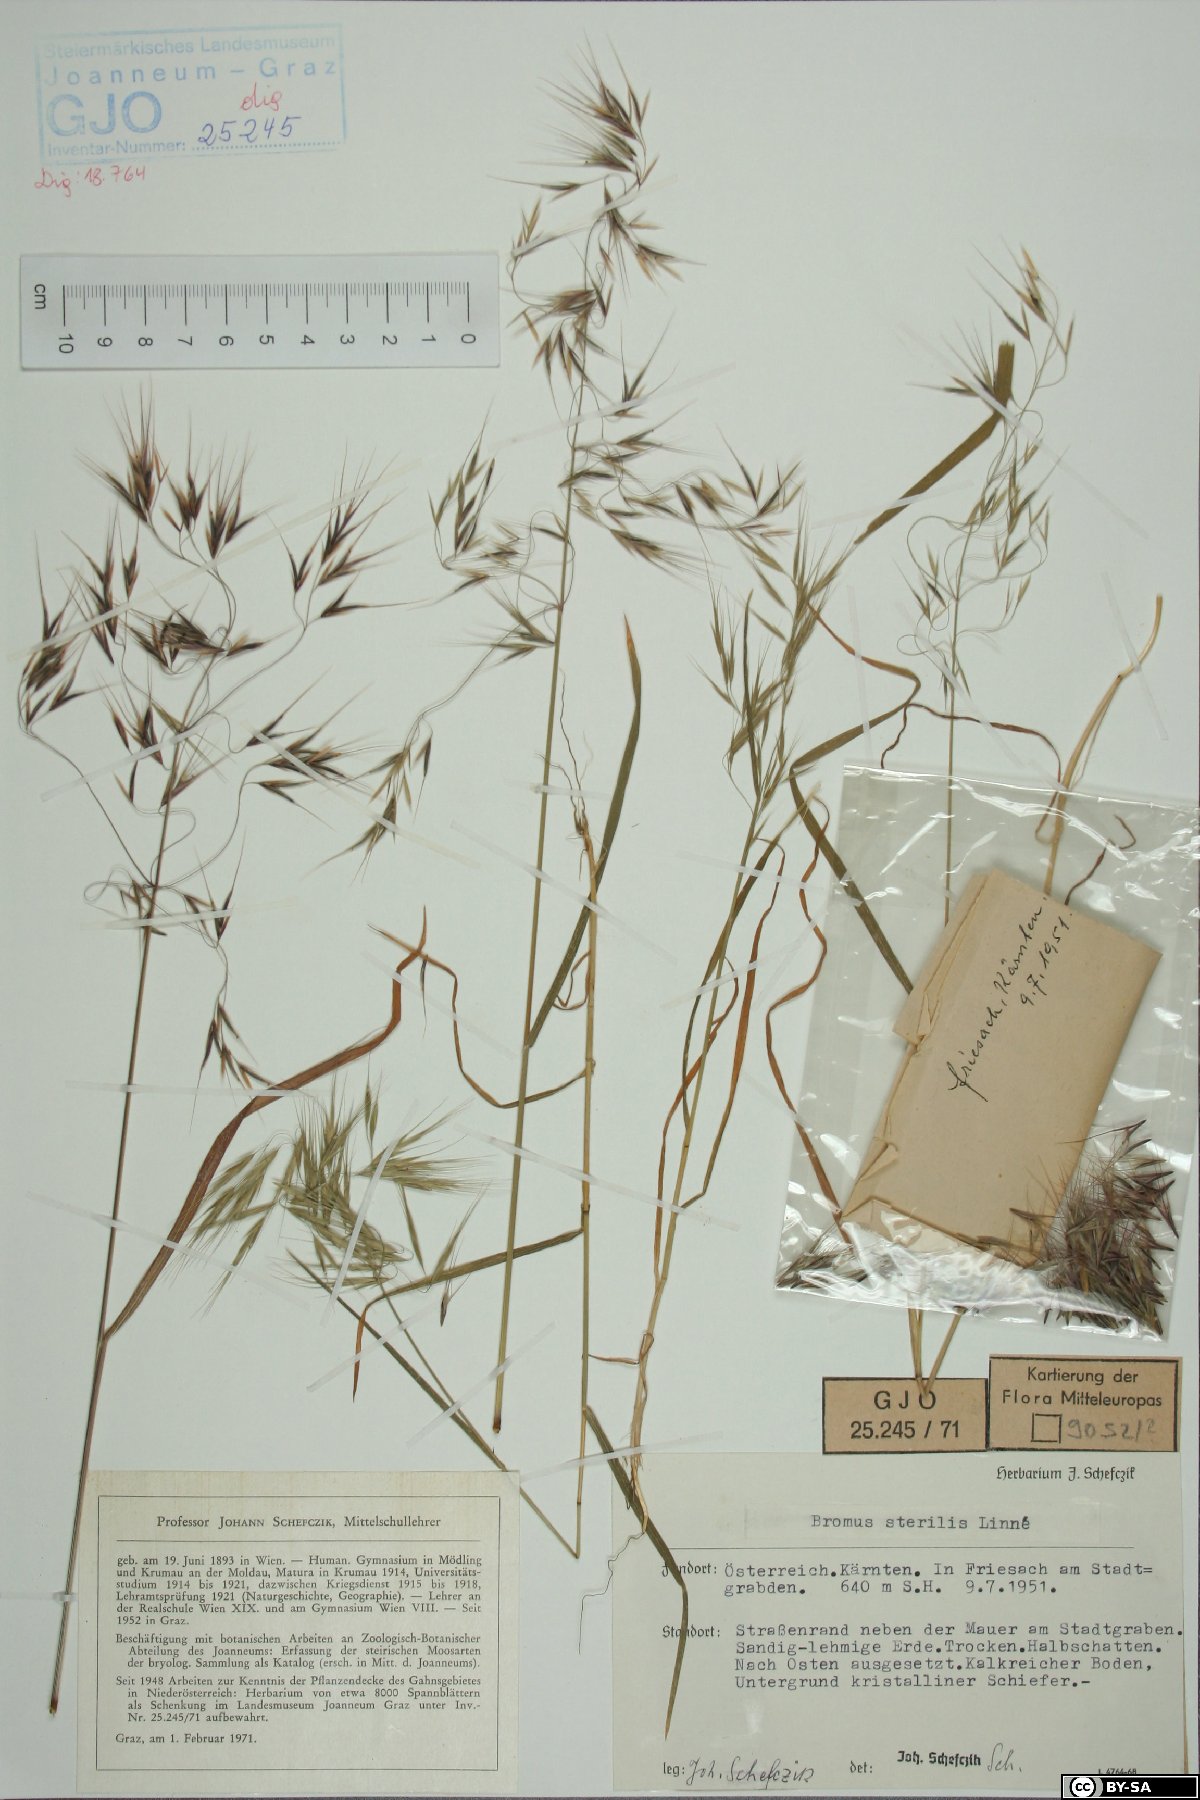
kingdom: Plantae
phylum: Tracheophyta
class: Liliopsida
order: Poales
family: Poaceae
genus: Bromus
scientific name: Bromus sterilis
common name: Poverty brome
